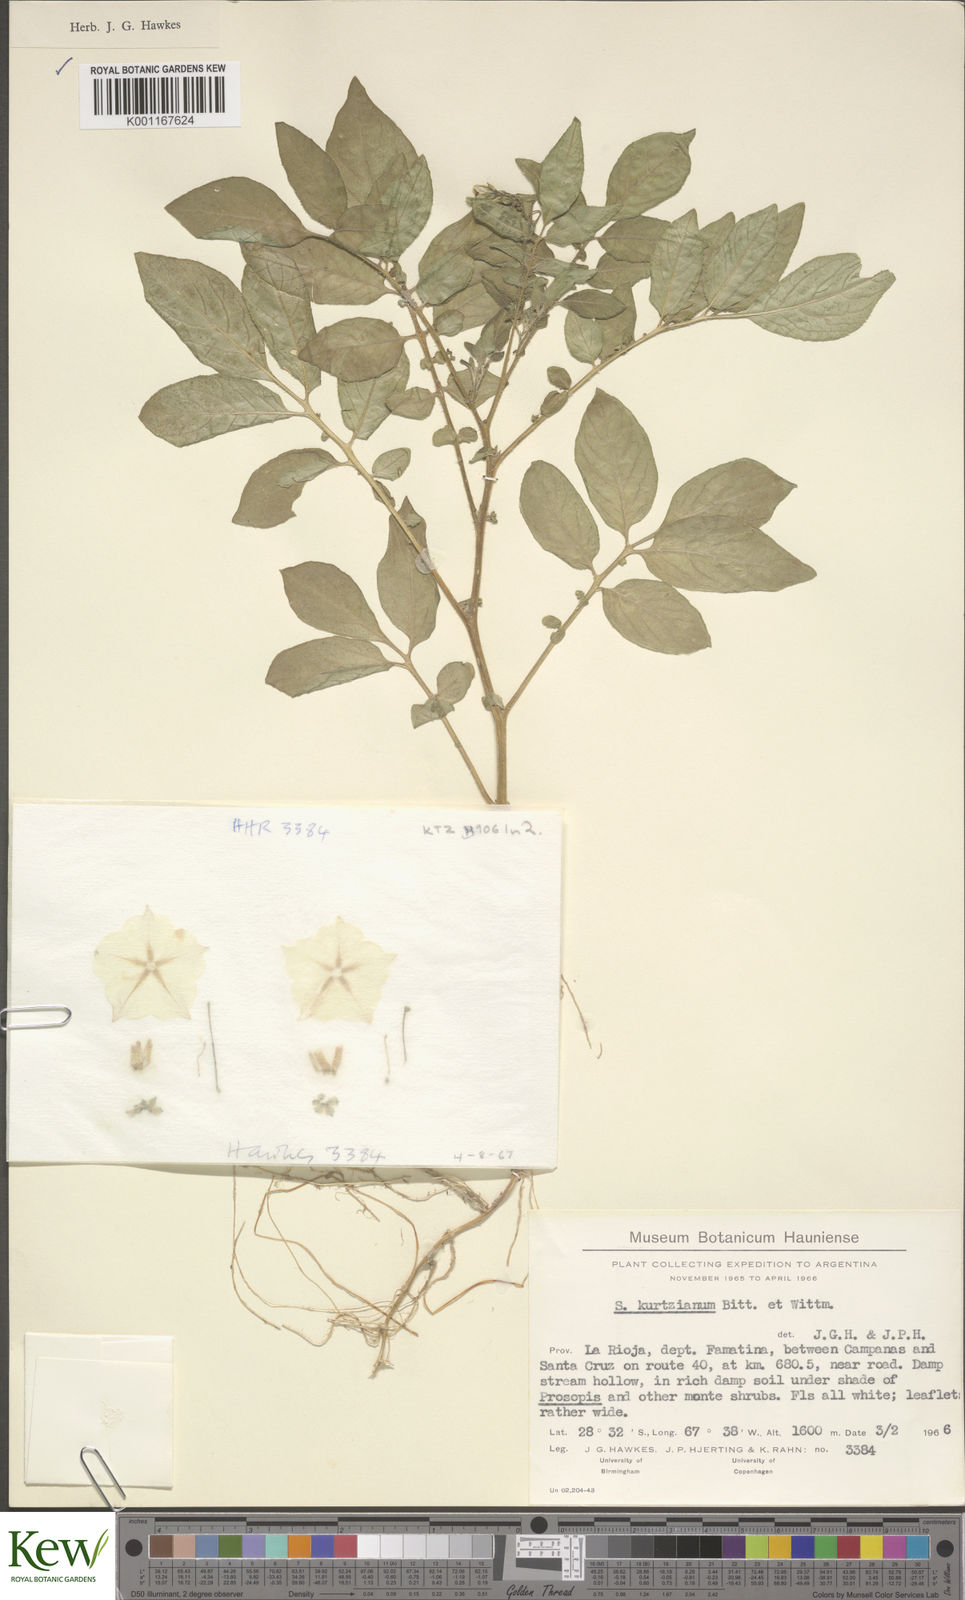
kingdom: Plantae
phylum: Tracheophyta
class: Magnoliopsida
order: Solanales
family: Solanaceae
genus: Solanum
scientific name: Solanum kurtzianum
